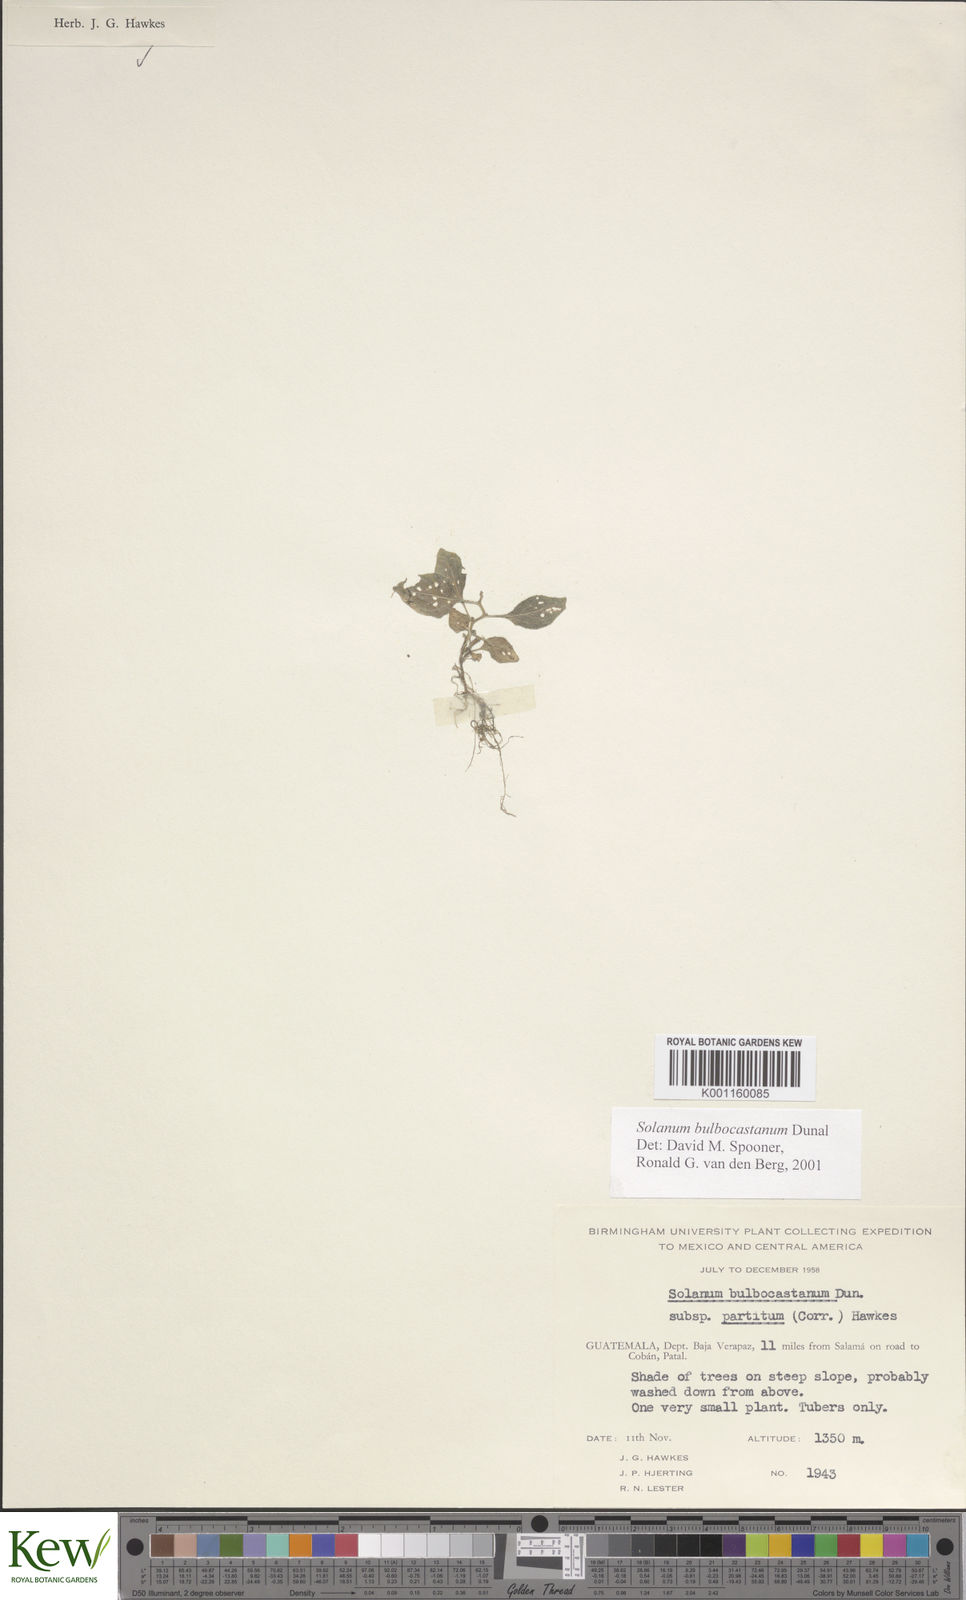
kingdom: Plantae
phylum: Tracheophyta
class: Magnoliopsida
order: Solanales
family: Solanaceae
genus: Solanum
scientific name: Solanum bulbocastanum
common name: Ornamental nightshade
